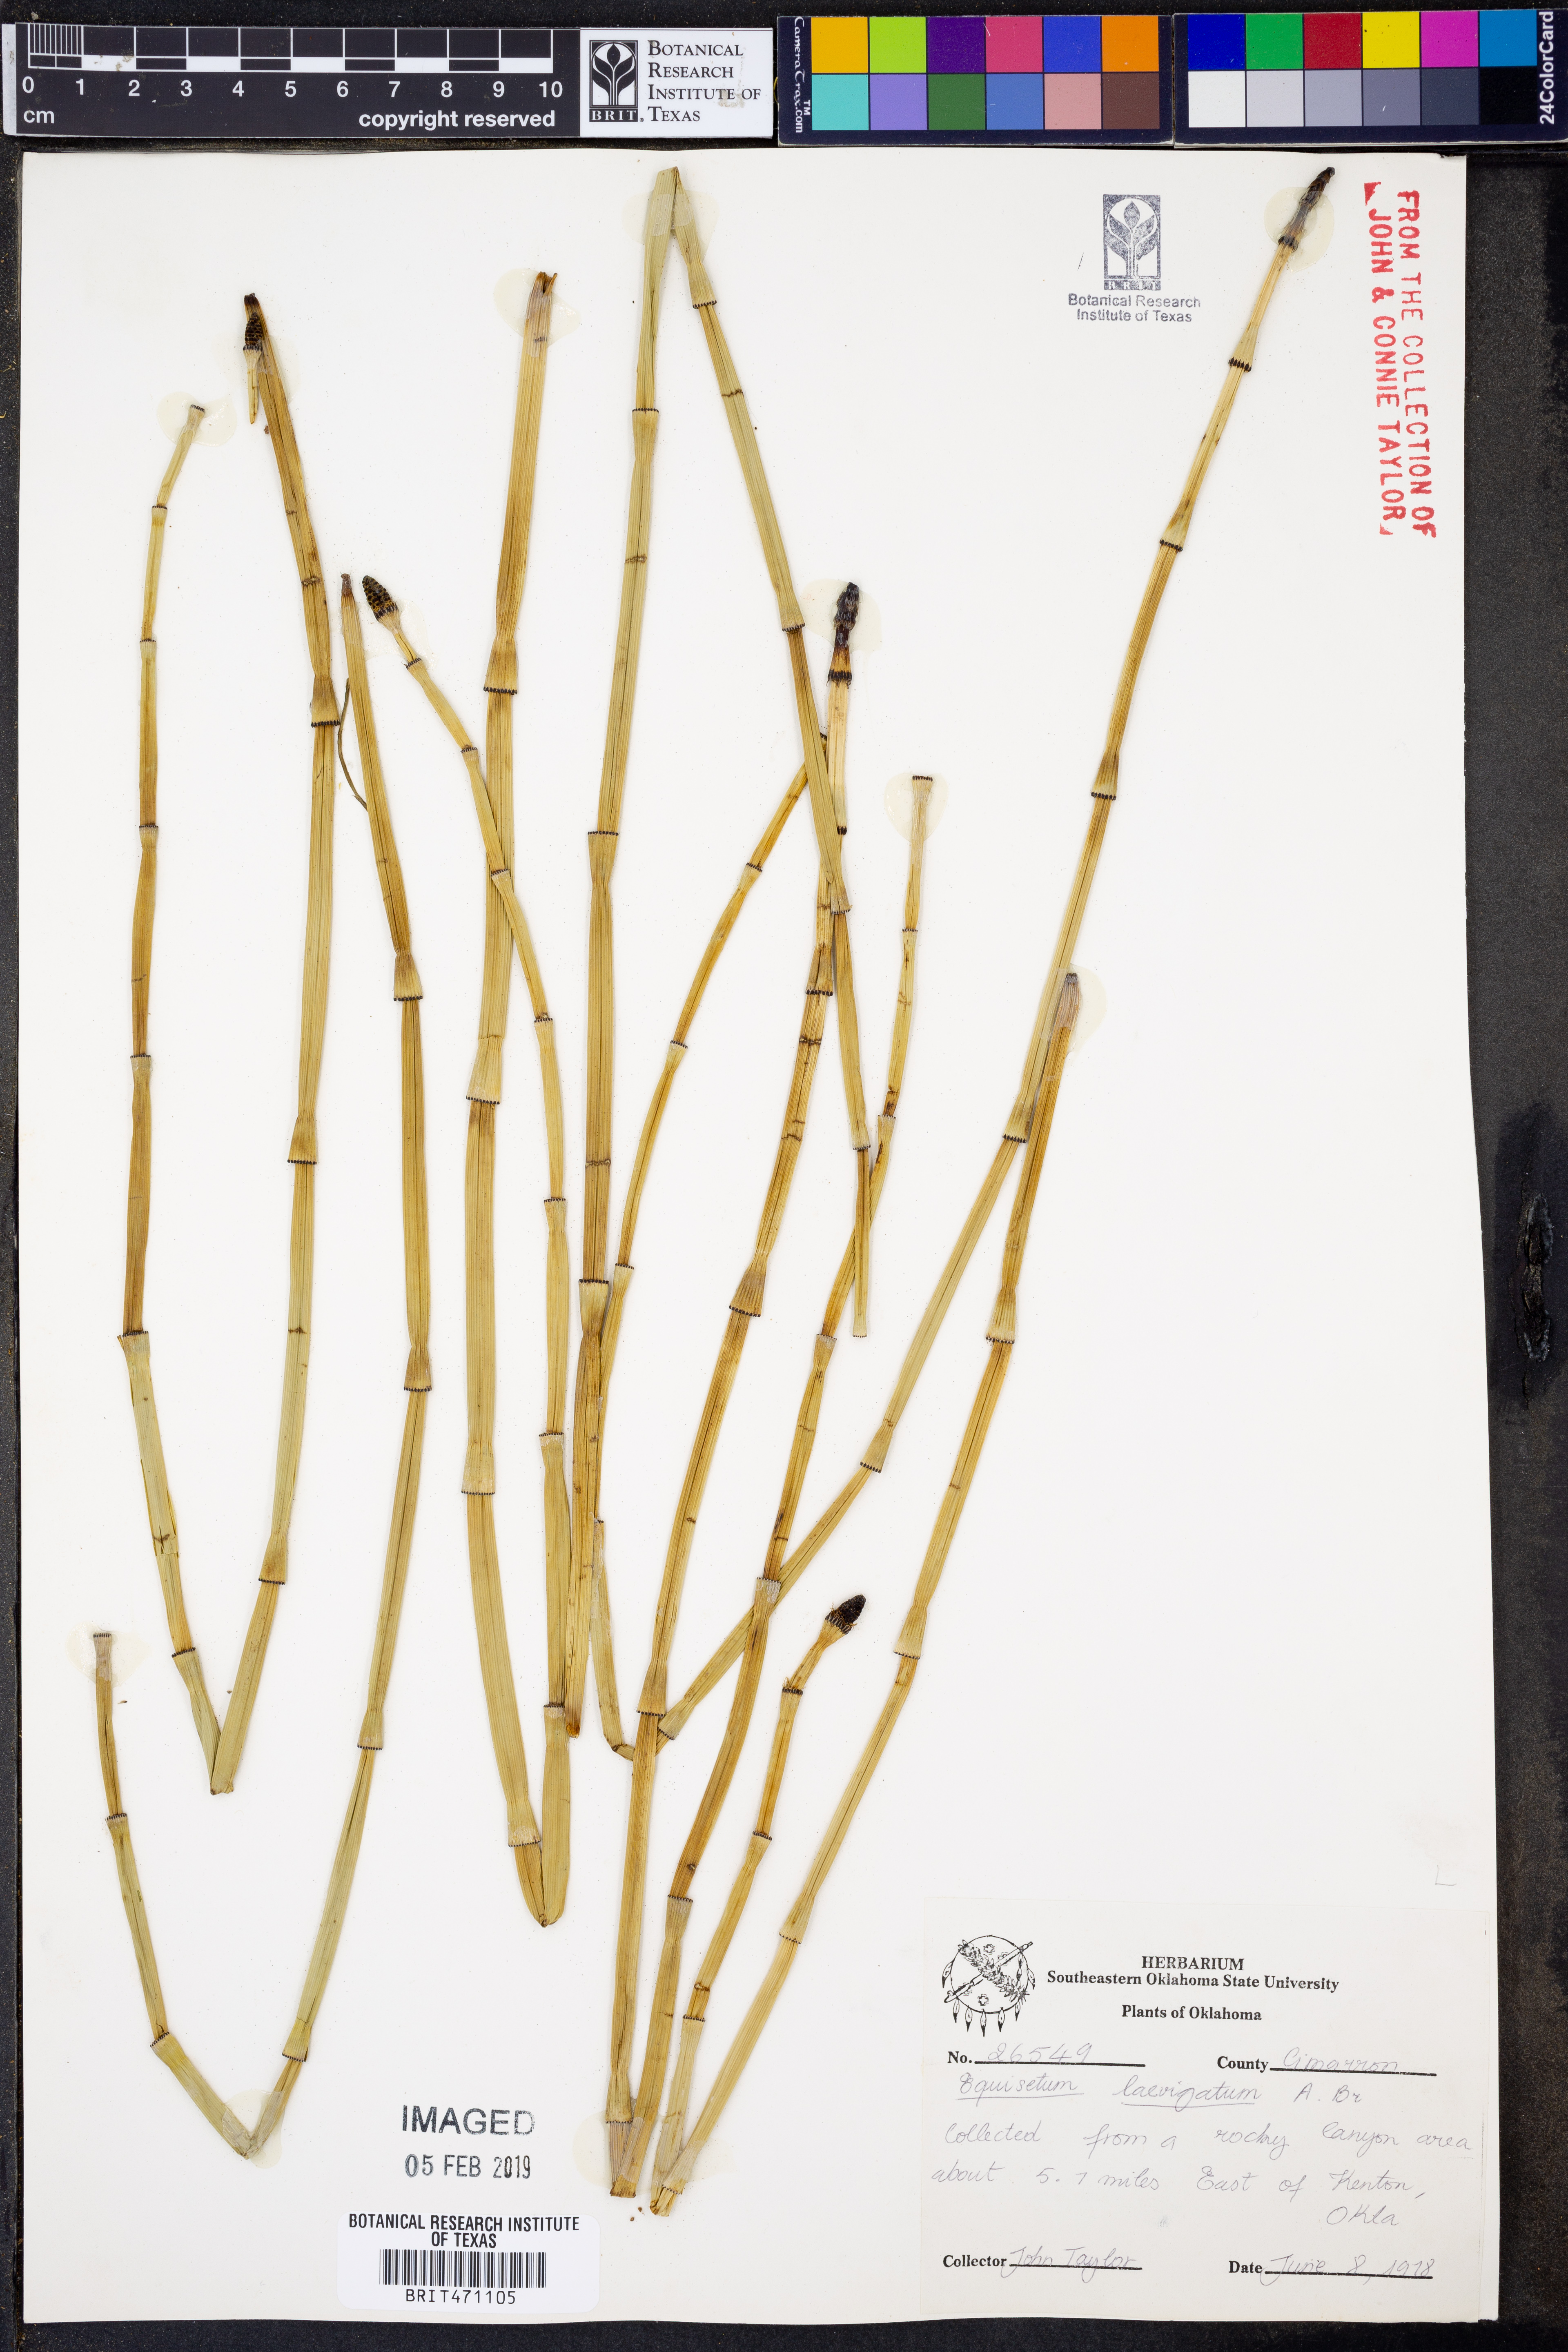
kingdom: Plantae
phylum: Tracheophyta
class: Polypodiopsida
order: Equisetales
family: Equisetaceae
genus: Equisetum
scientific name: Equisetum laevigatum
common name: Smooth scouring-rush
